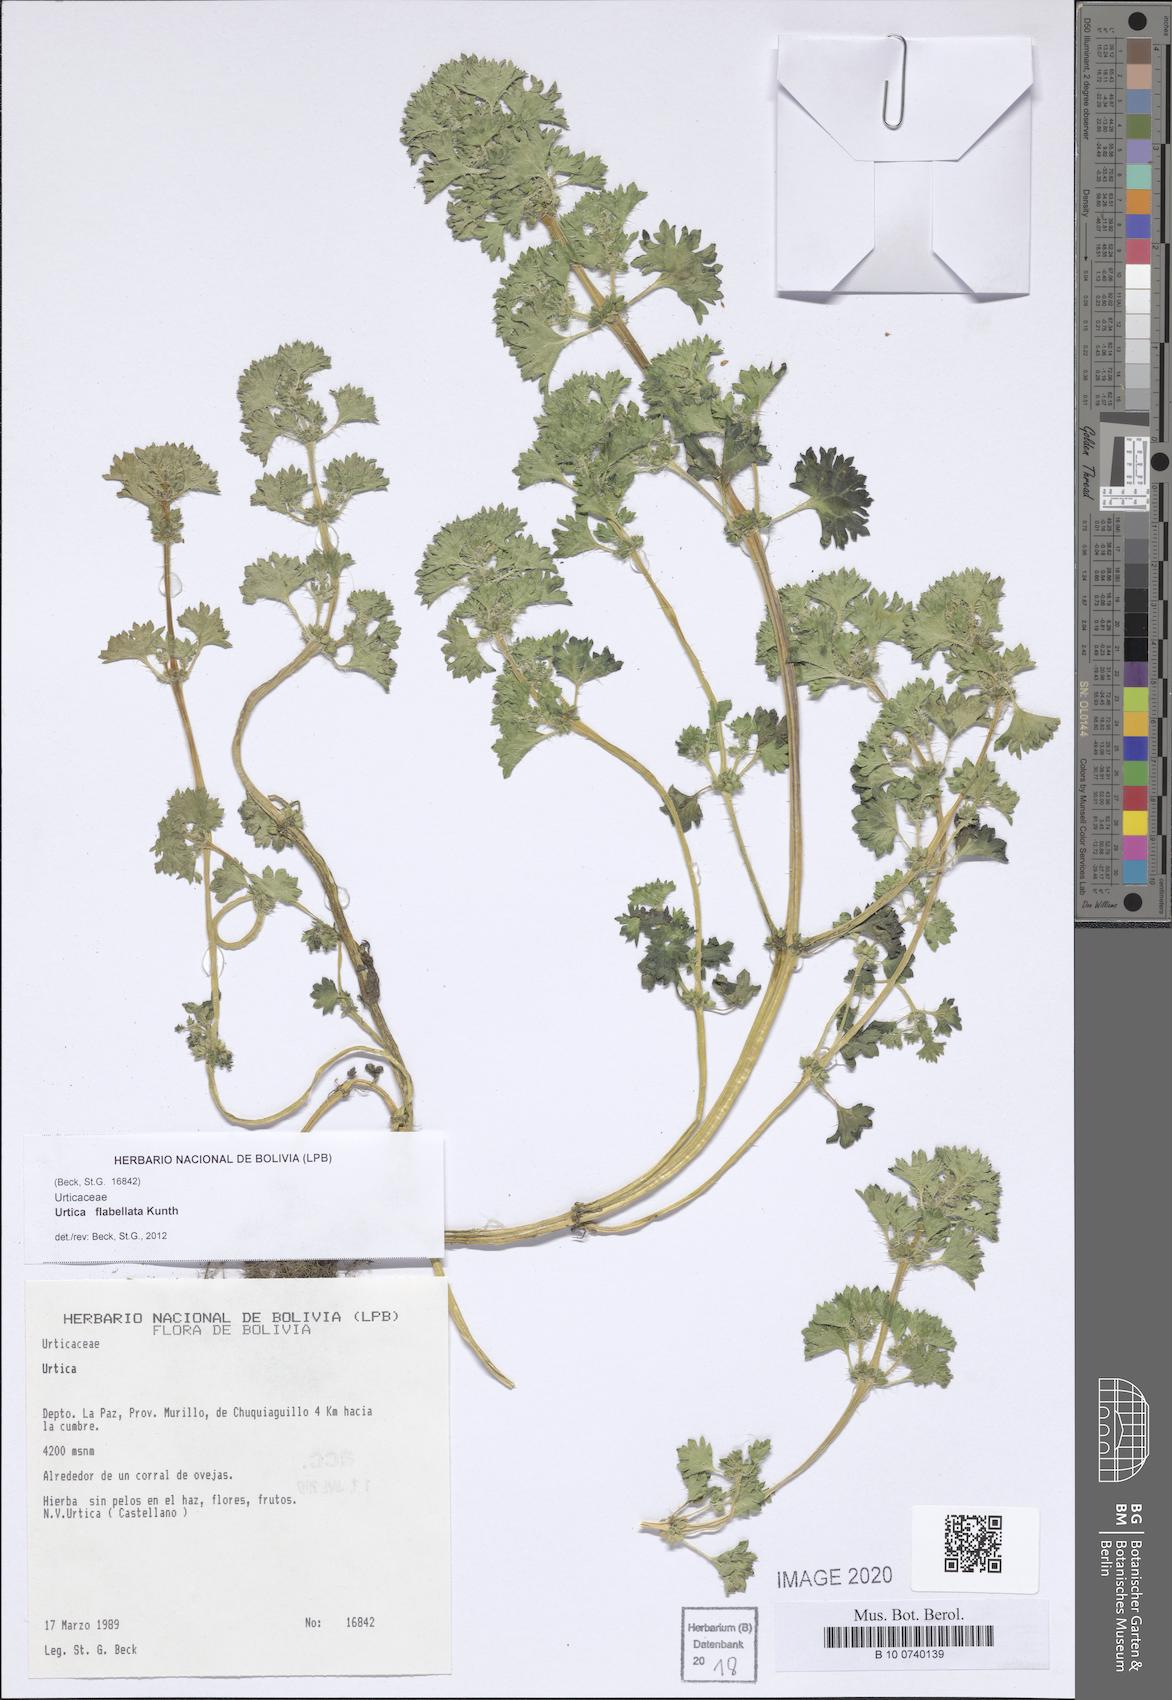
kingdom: Plantae
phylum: Tracheophyta
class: Magnoliopsida
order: Rosales
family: Urticaceae
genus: Urtica
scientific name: Urtica flabellata
